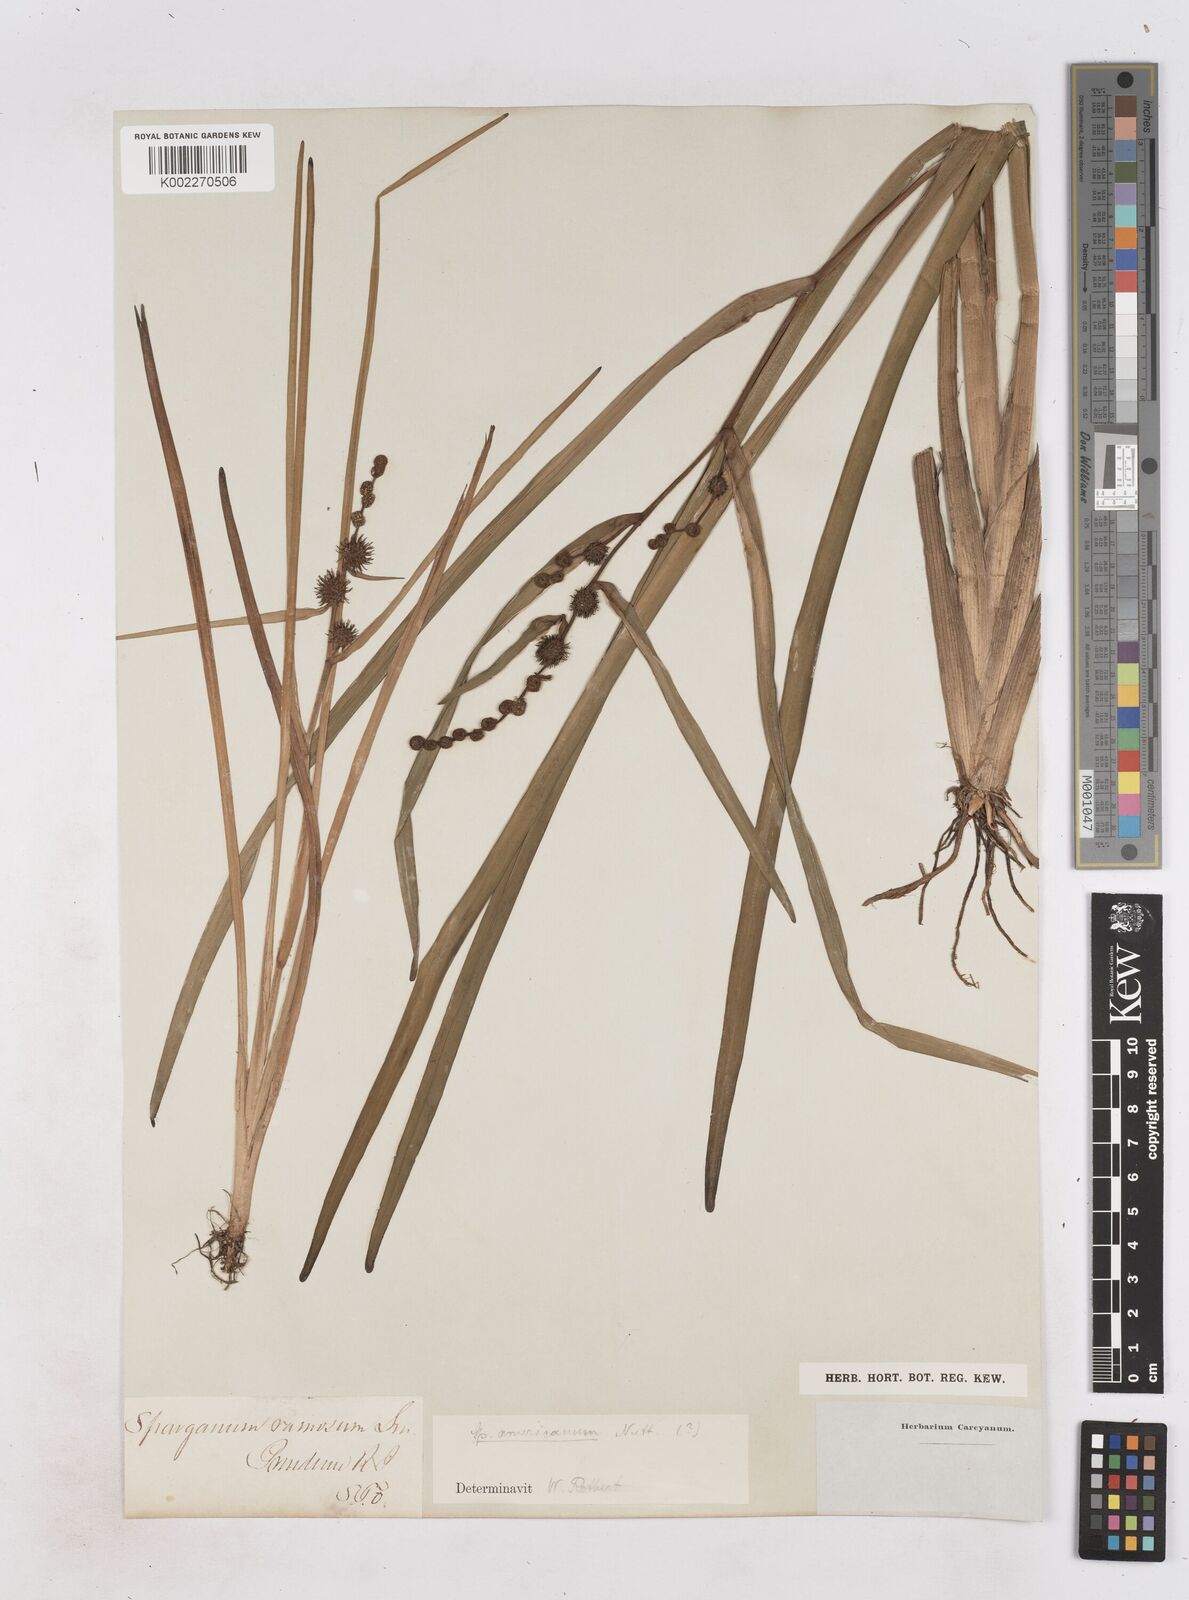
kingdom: Plantae
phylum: Tracheophyta
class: Liliopsida
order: Poales
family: Typhaceae
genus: Sparganium
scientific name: Sparganium americanum
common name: American burreed
